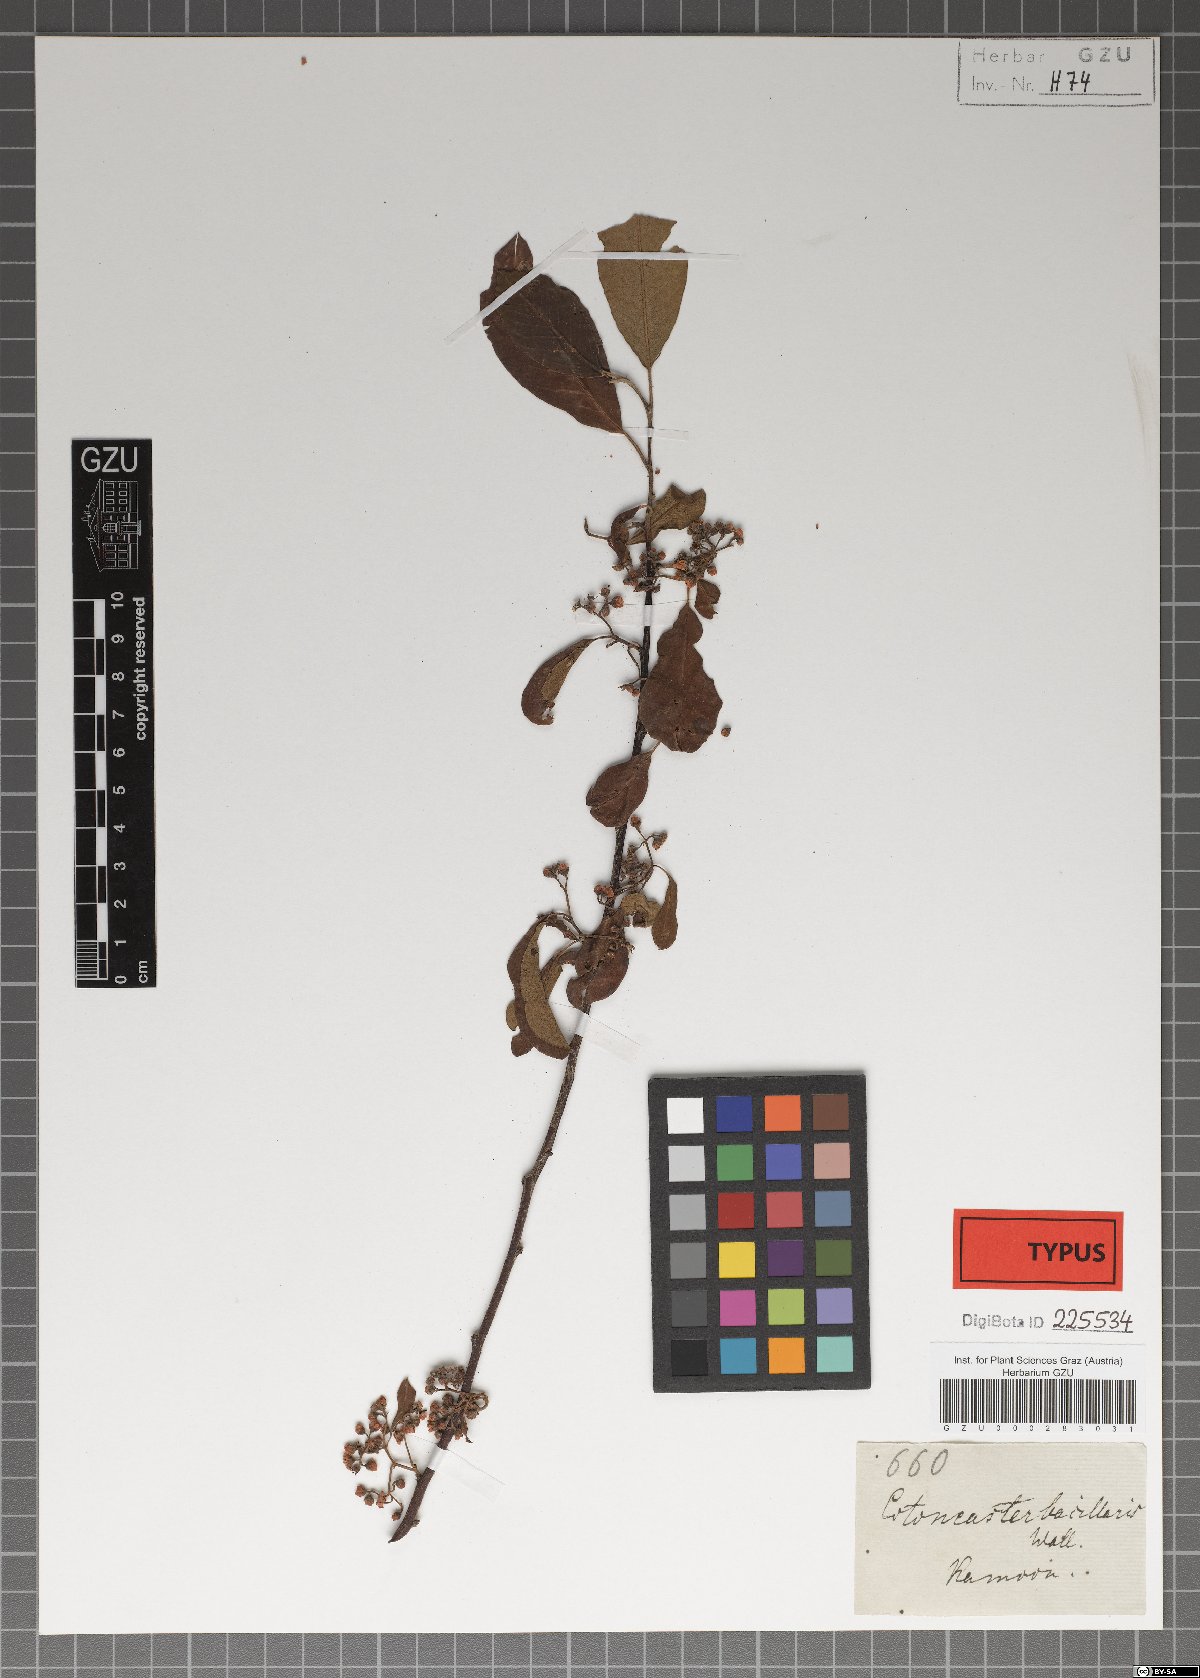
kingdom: Plantae
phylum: Tracheophyta
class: Magnoliopsida
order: Rosales
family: Rosaceae
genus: Cotoneaster
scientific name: Cotoneaster affinis
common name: Purpleberry cotoneaster
